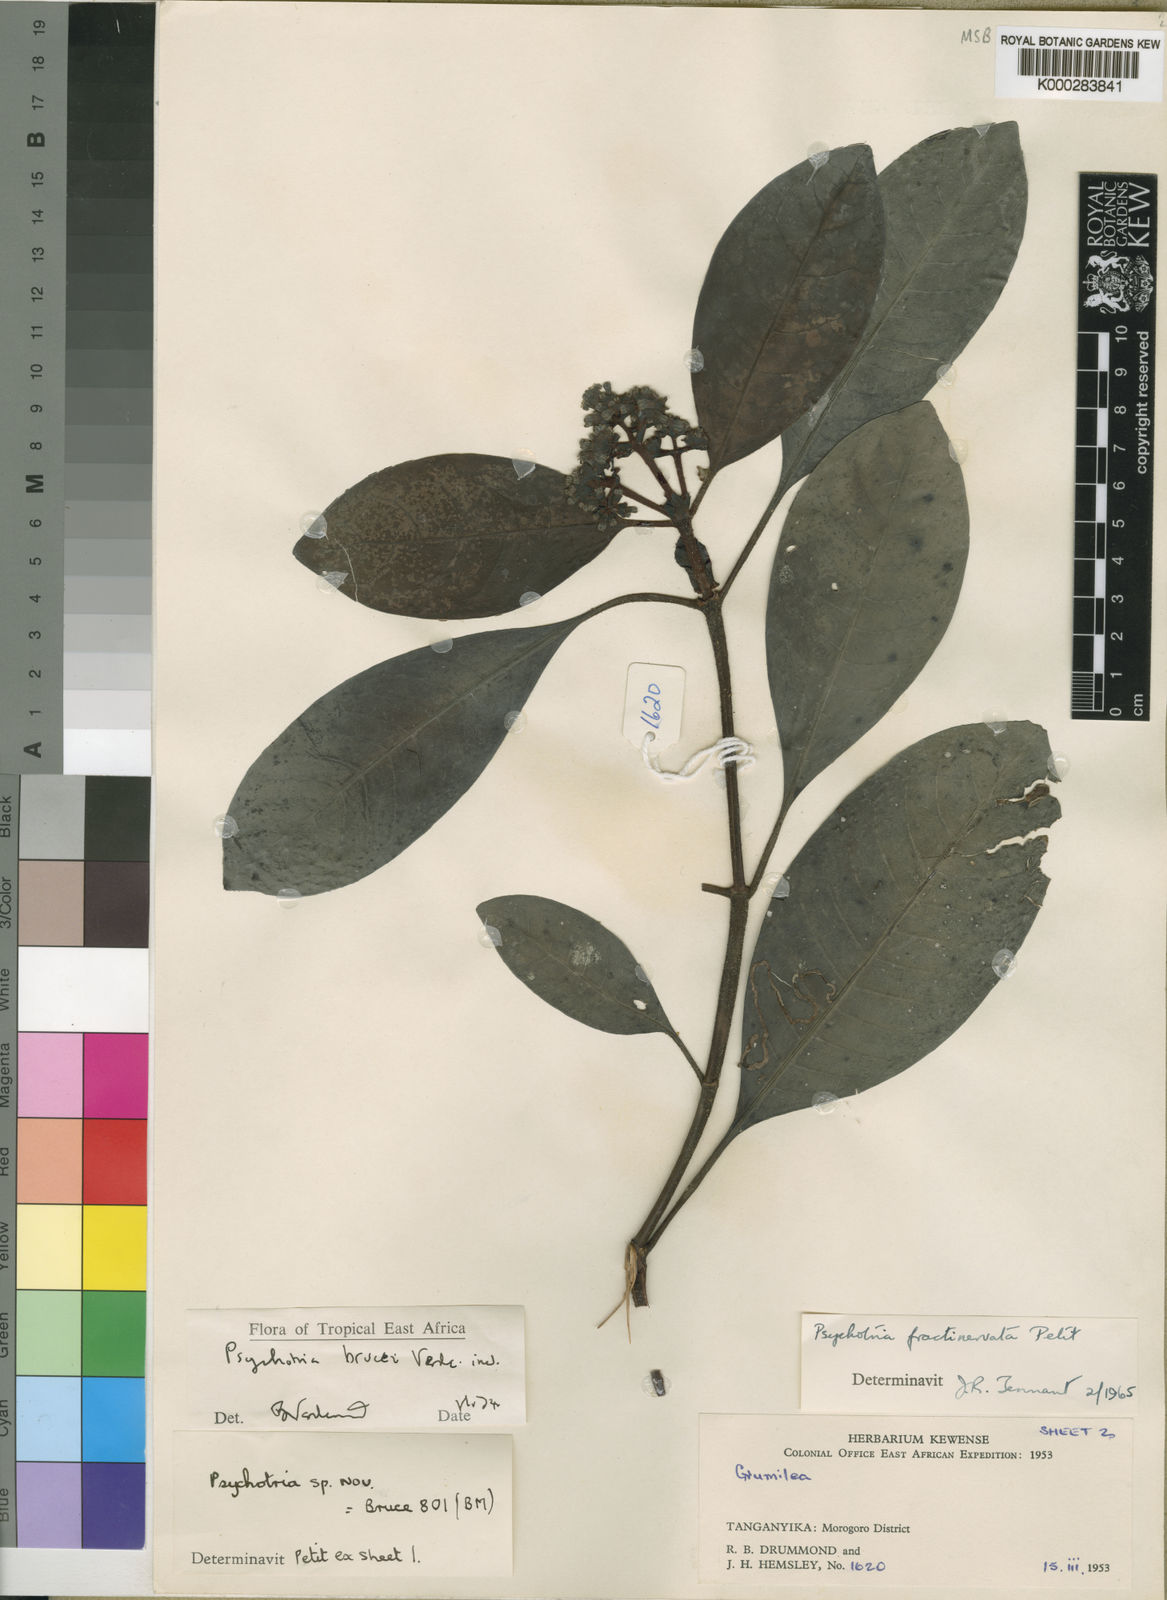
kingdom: Plantae
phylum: Tracheophyta
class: Magnoliopsida
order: Gentianales
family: Rubiaceae
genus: Psychotria
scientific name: Psychotria brucei
